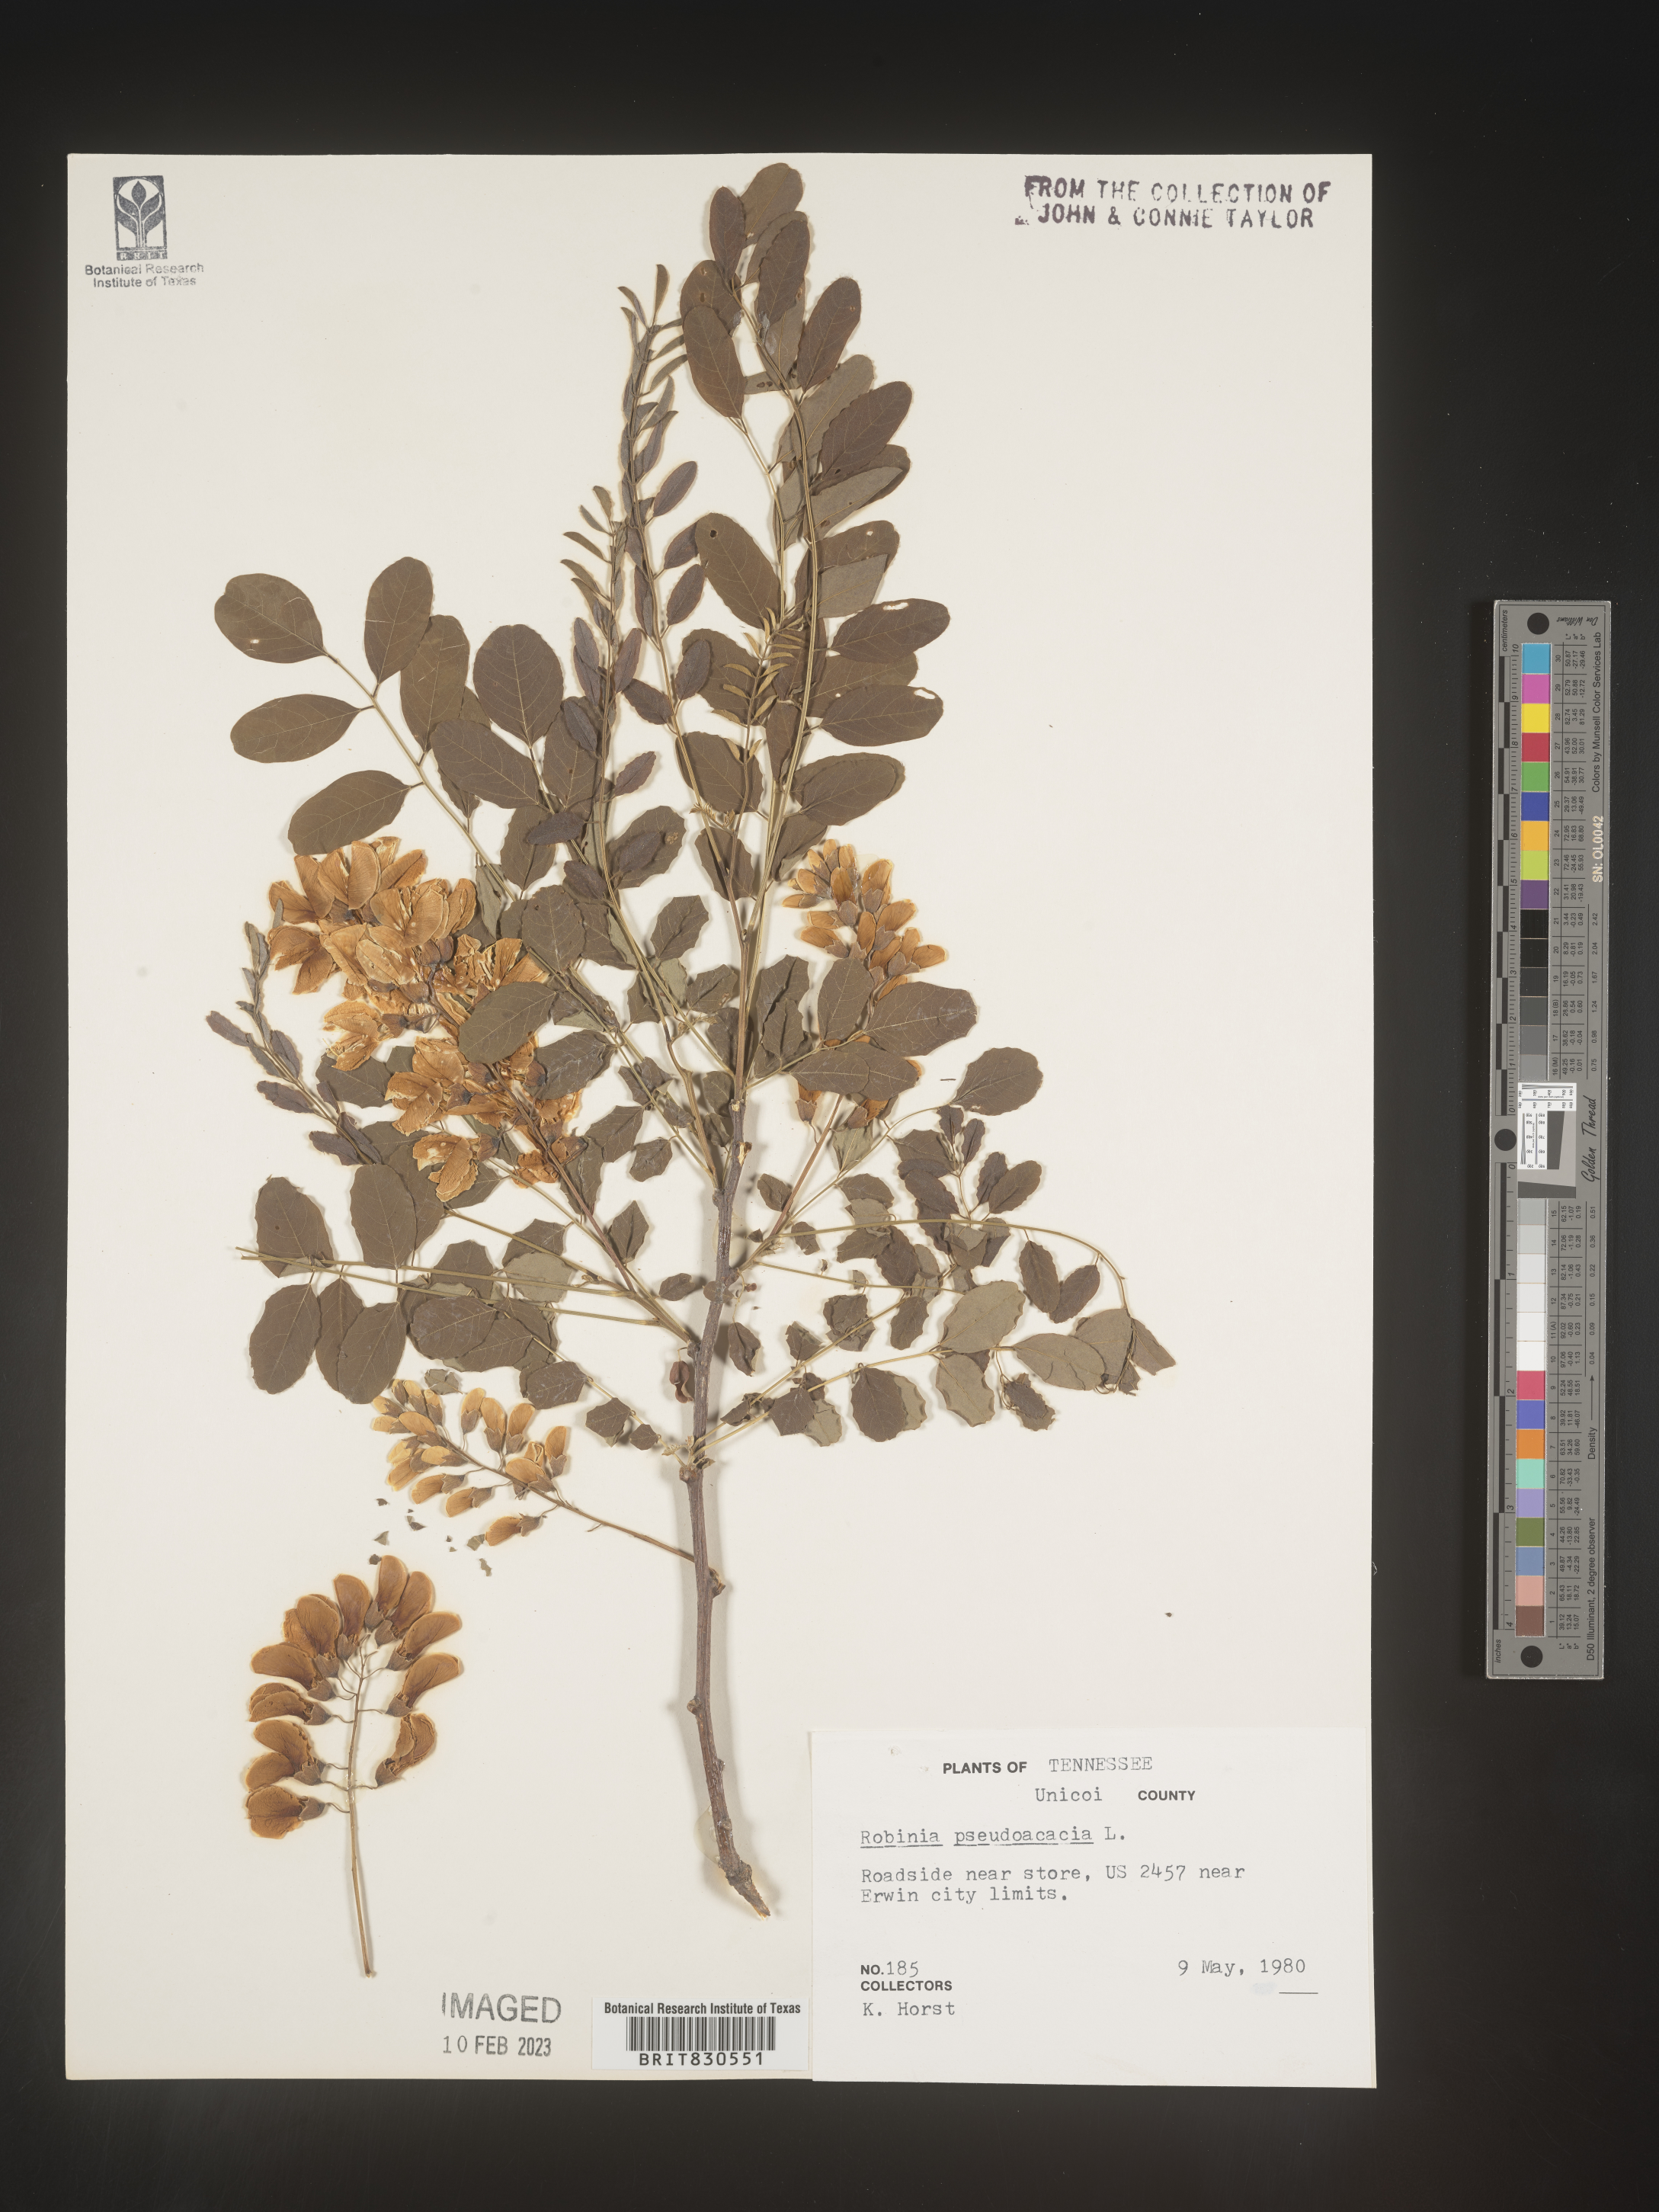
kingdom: Plantae
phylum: Tracheophyta
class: Magnoliopsida
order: Fabales
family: Fabaceae
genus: Robinia
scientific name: Robinia pseudoacacia
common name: Black locust
